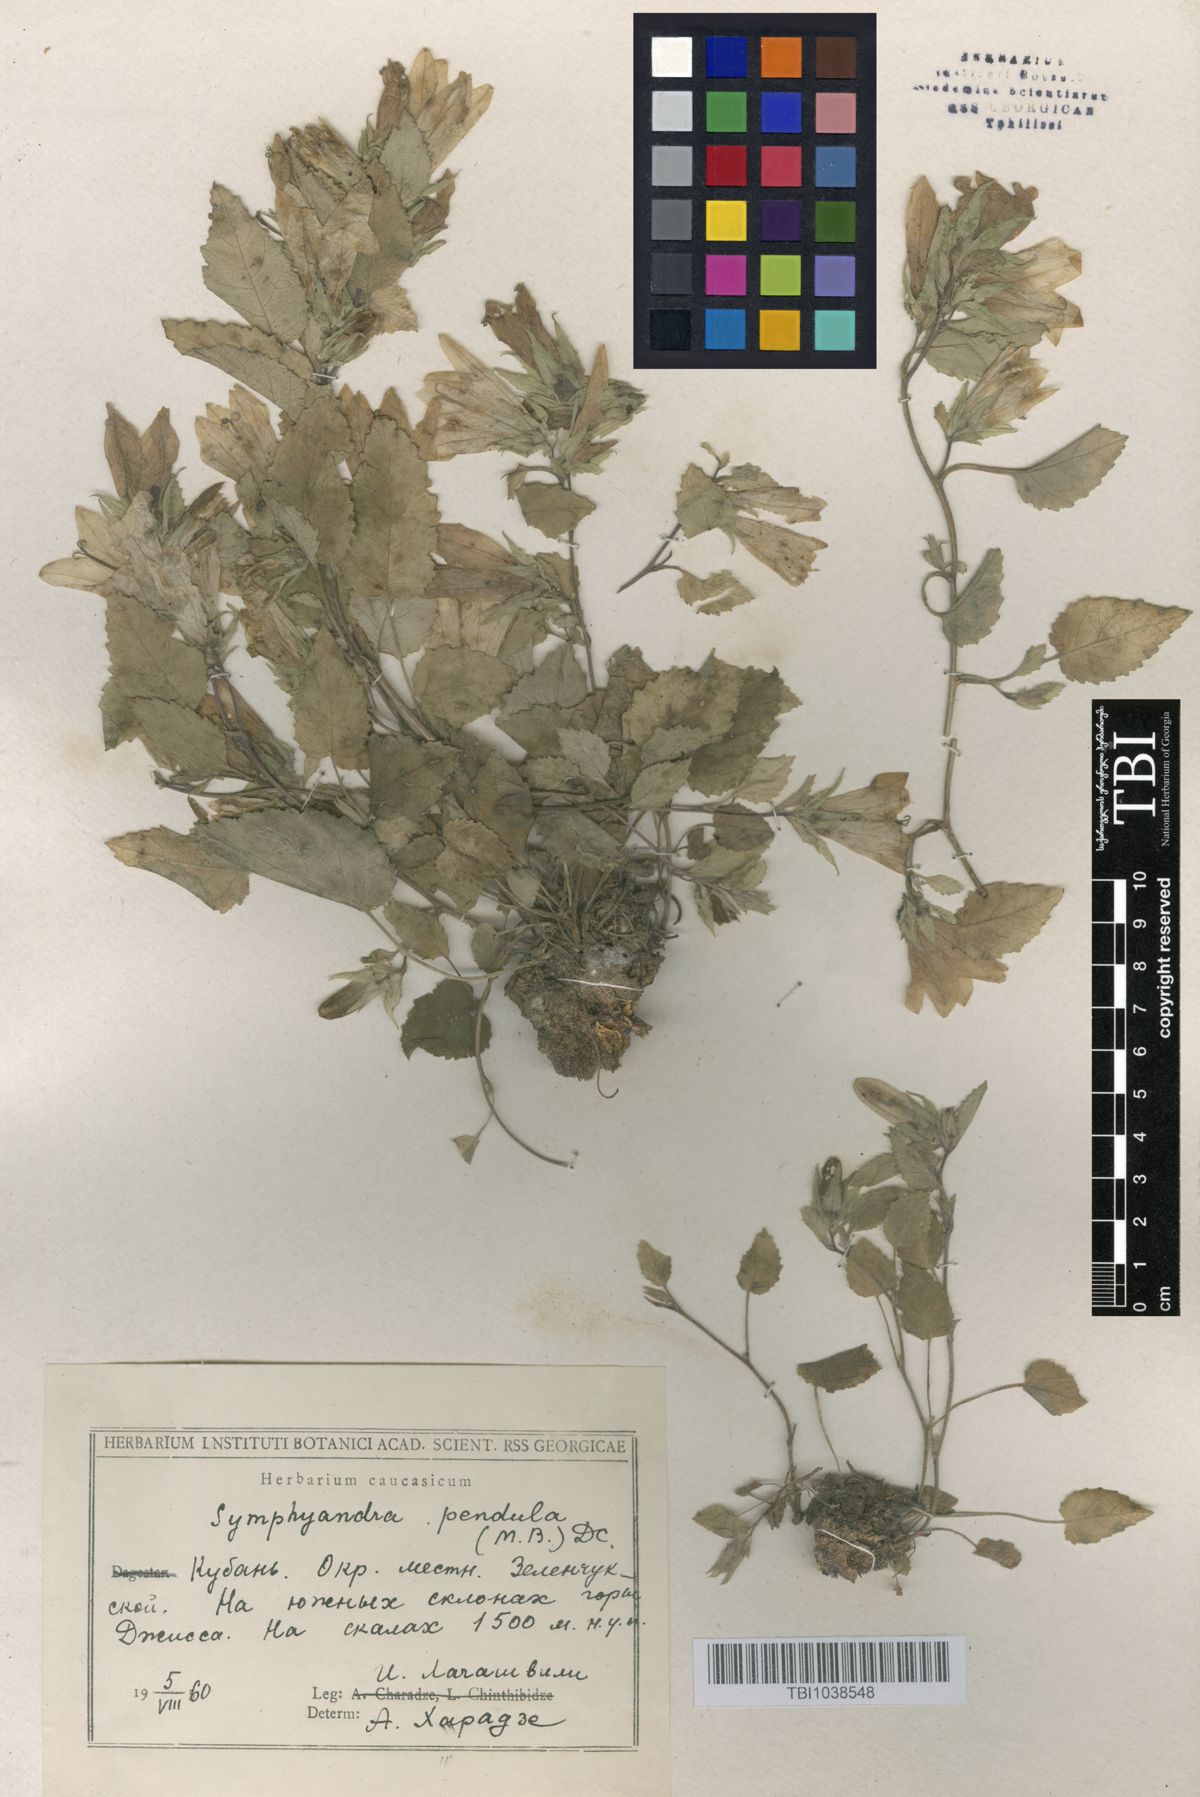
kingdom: Plantae
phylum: Tracheophyta
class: Magnoliopsida
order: Asterales
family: Campanulaceae
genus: Campanula
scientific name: Campanula pendula
